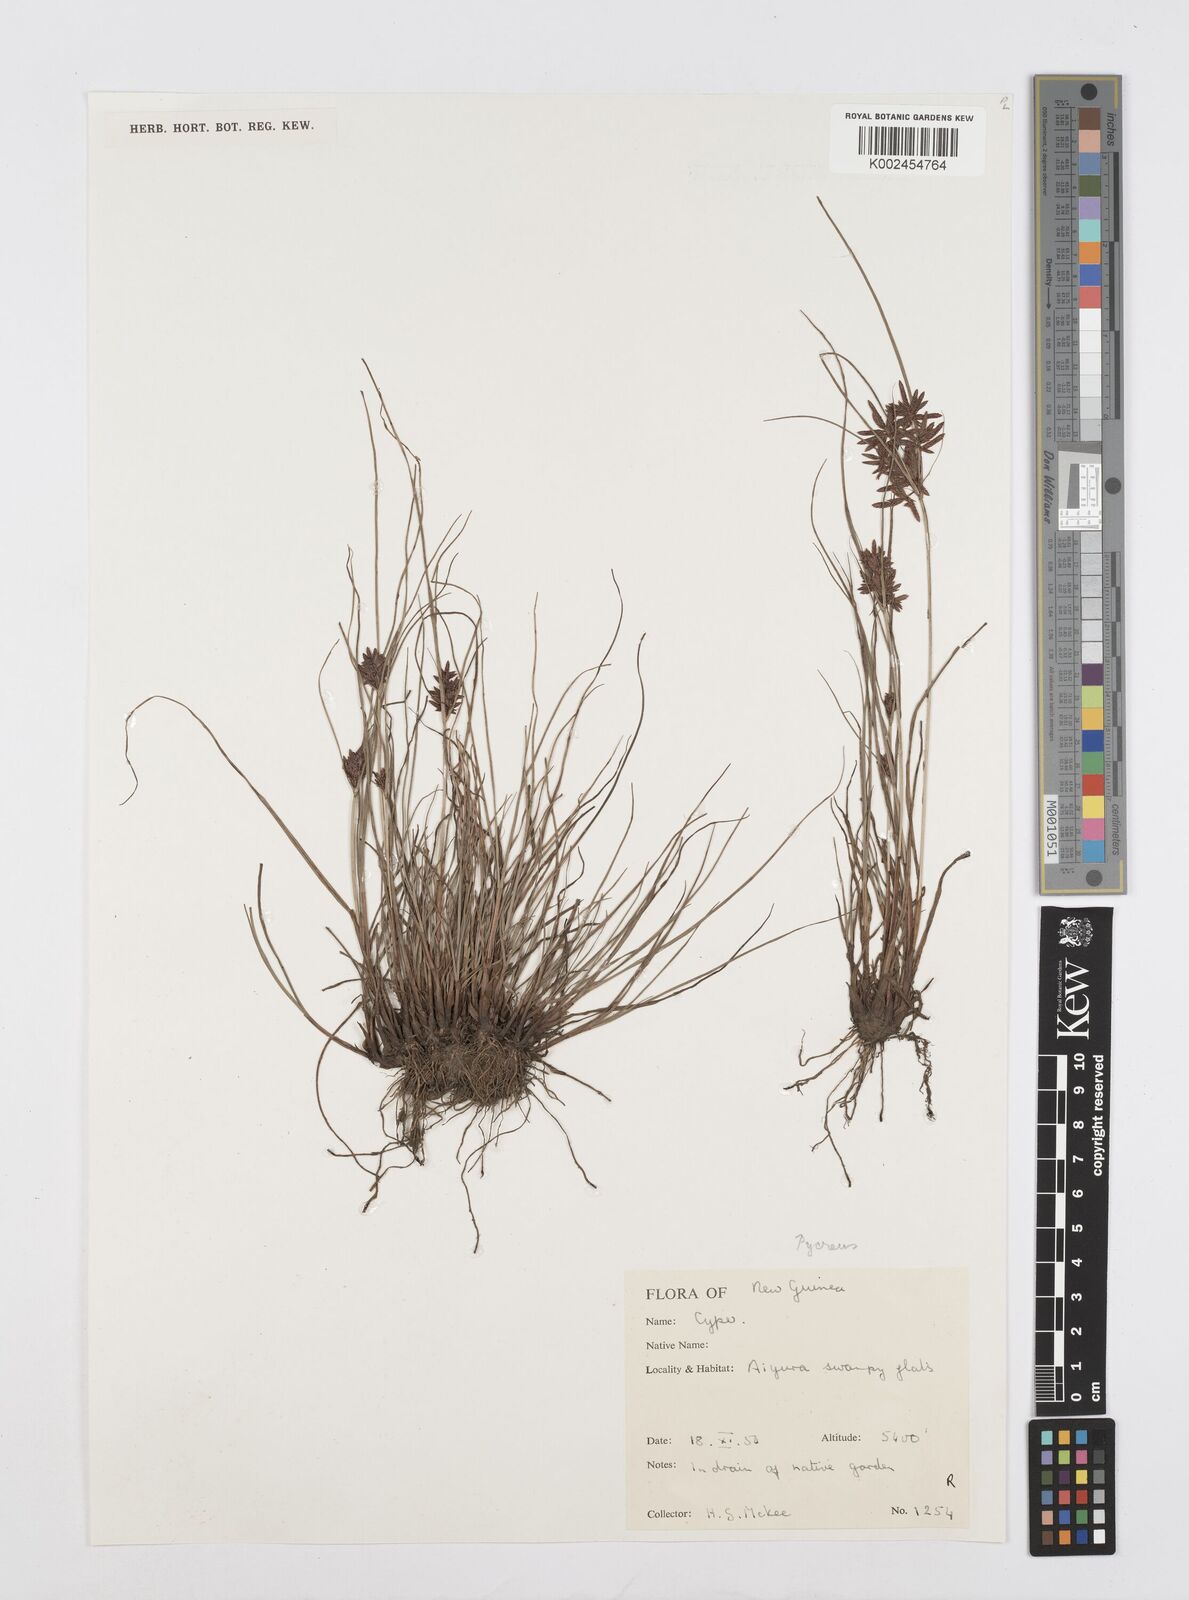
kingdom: Plantae
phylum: Tracheophyta
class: Liliopsida
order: Poales
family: Cyperaceae
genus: Cyperus
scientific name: Cyperus flavidus
